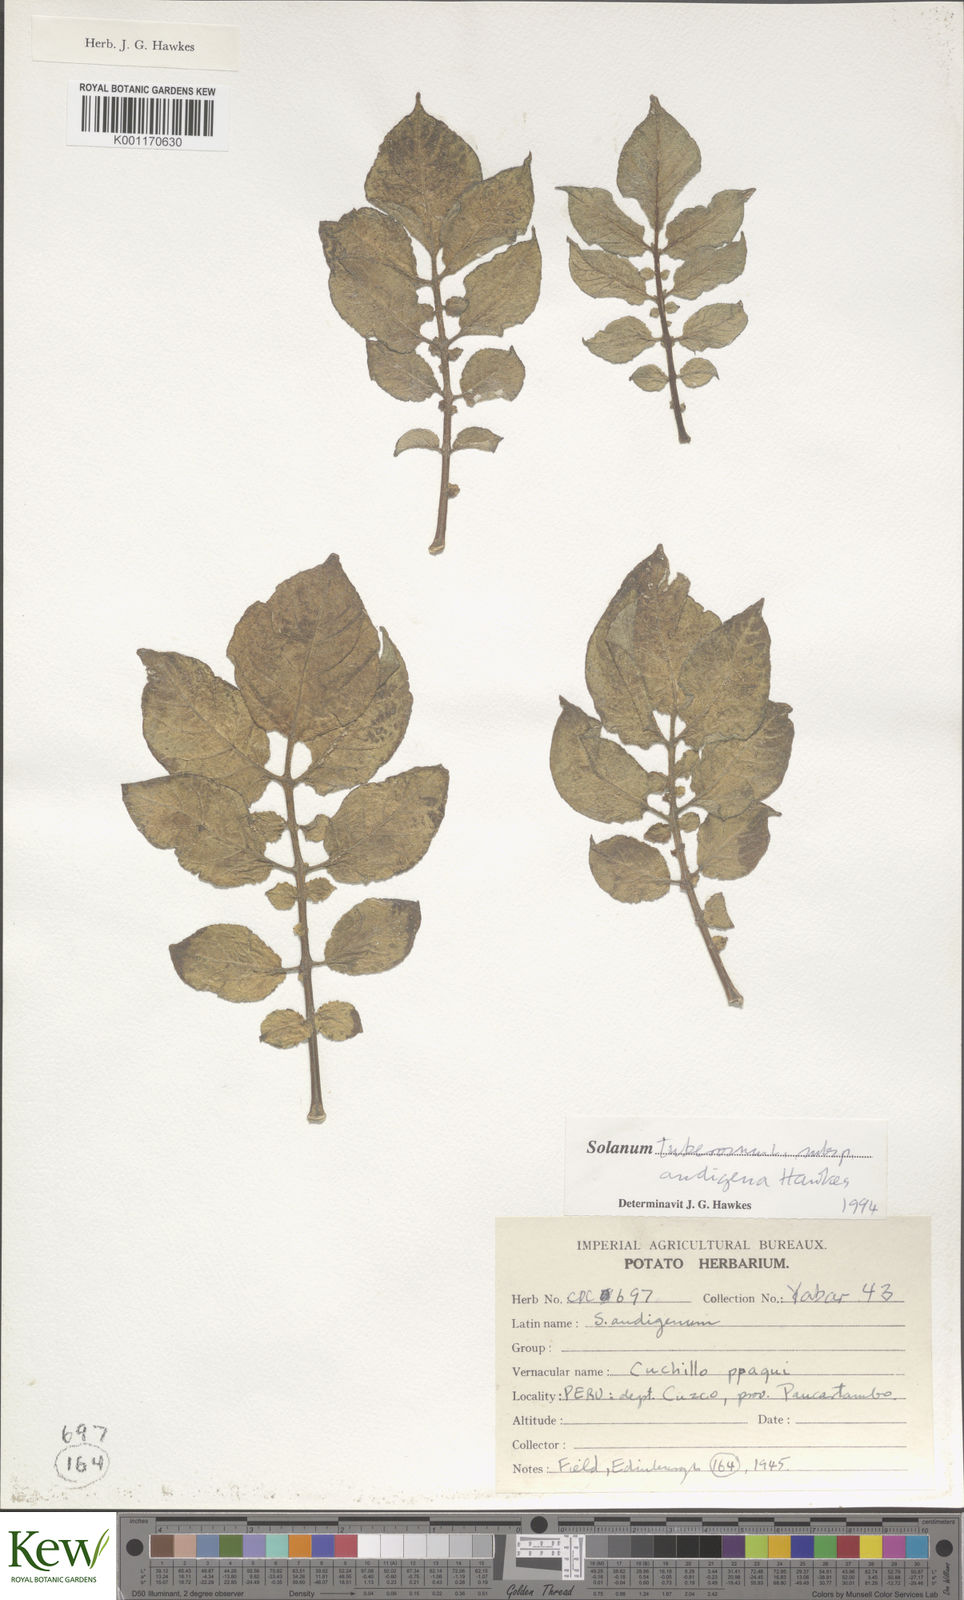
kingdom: Plantae
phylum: Tracheophyta
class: Magnoliopsida
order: Solanales
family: Solanaceae
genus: Solanum
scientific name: Solanum tuberosum
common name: Potato
